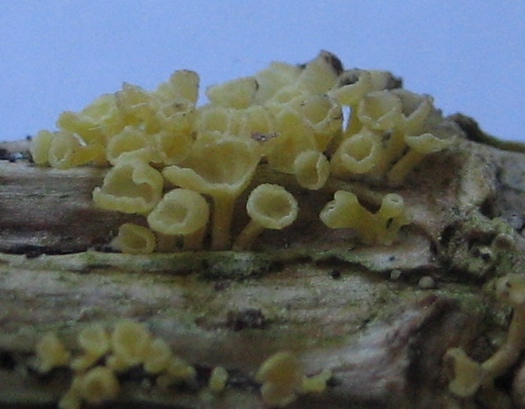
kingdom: Fungi
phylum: Basidiomycota
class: Agaricomycetes
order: Agaricales
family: Marasmiaceae
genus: Calyptella
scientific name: Calyptella campanula
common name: gul nældehue
